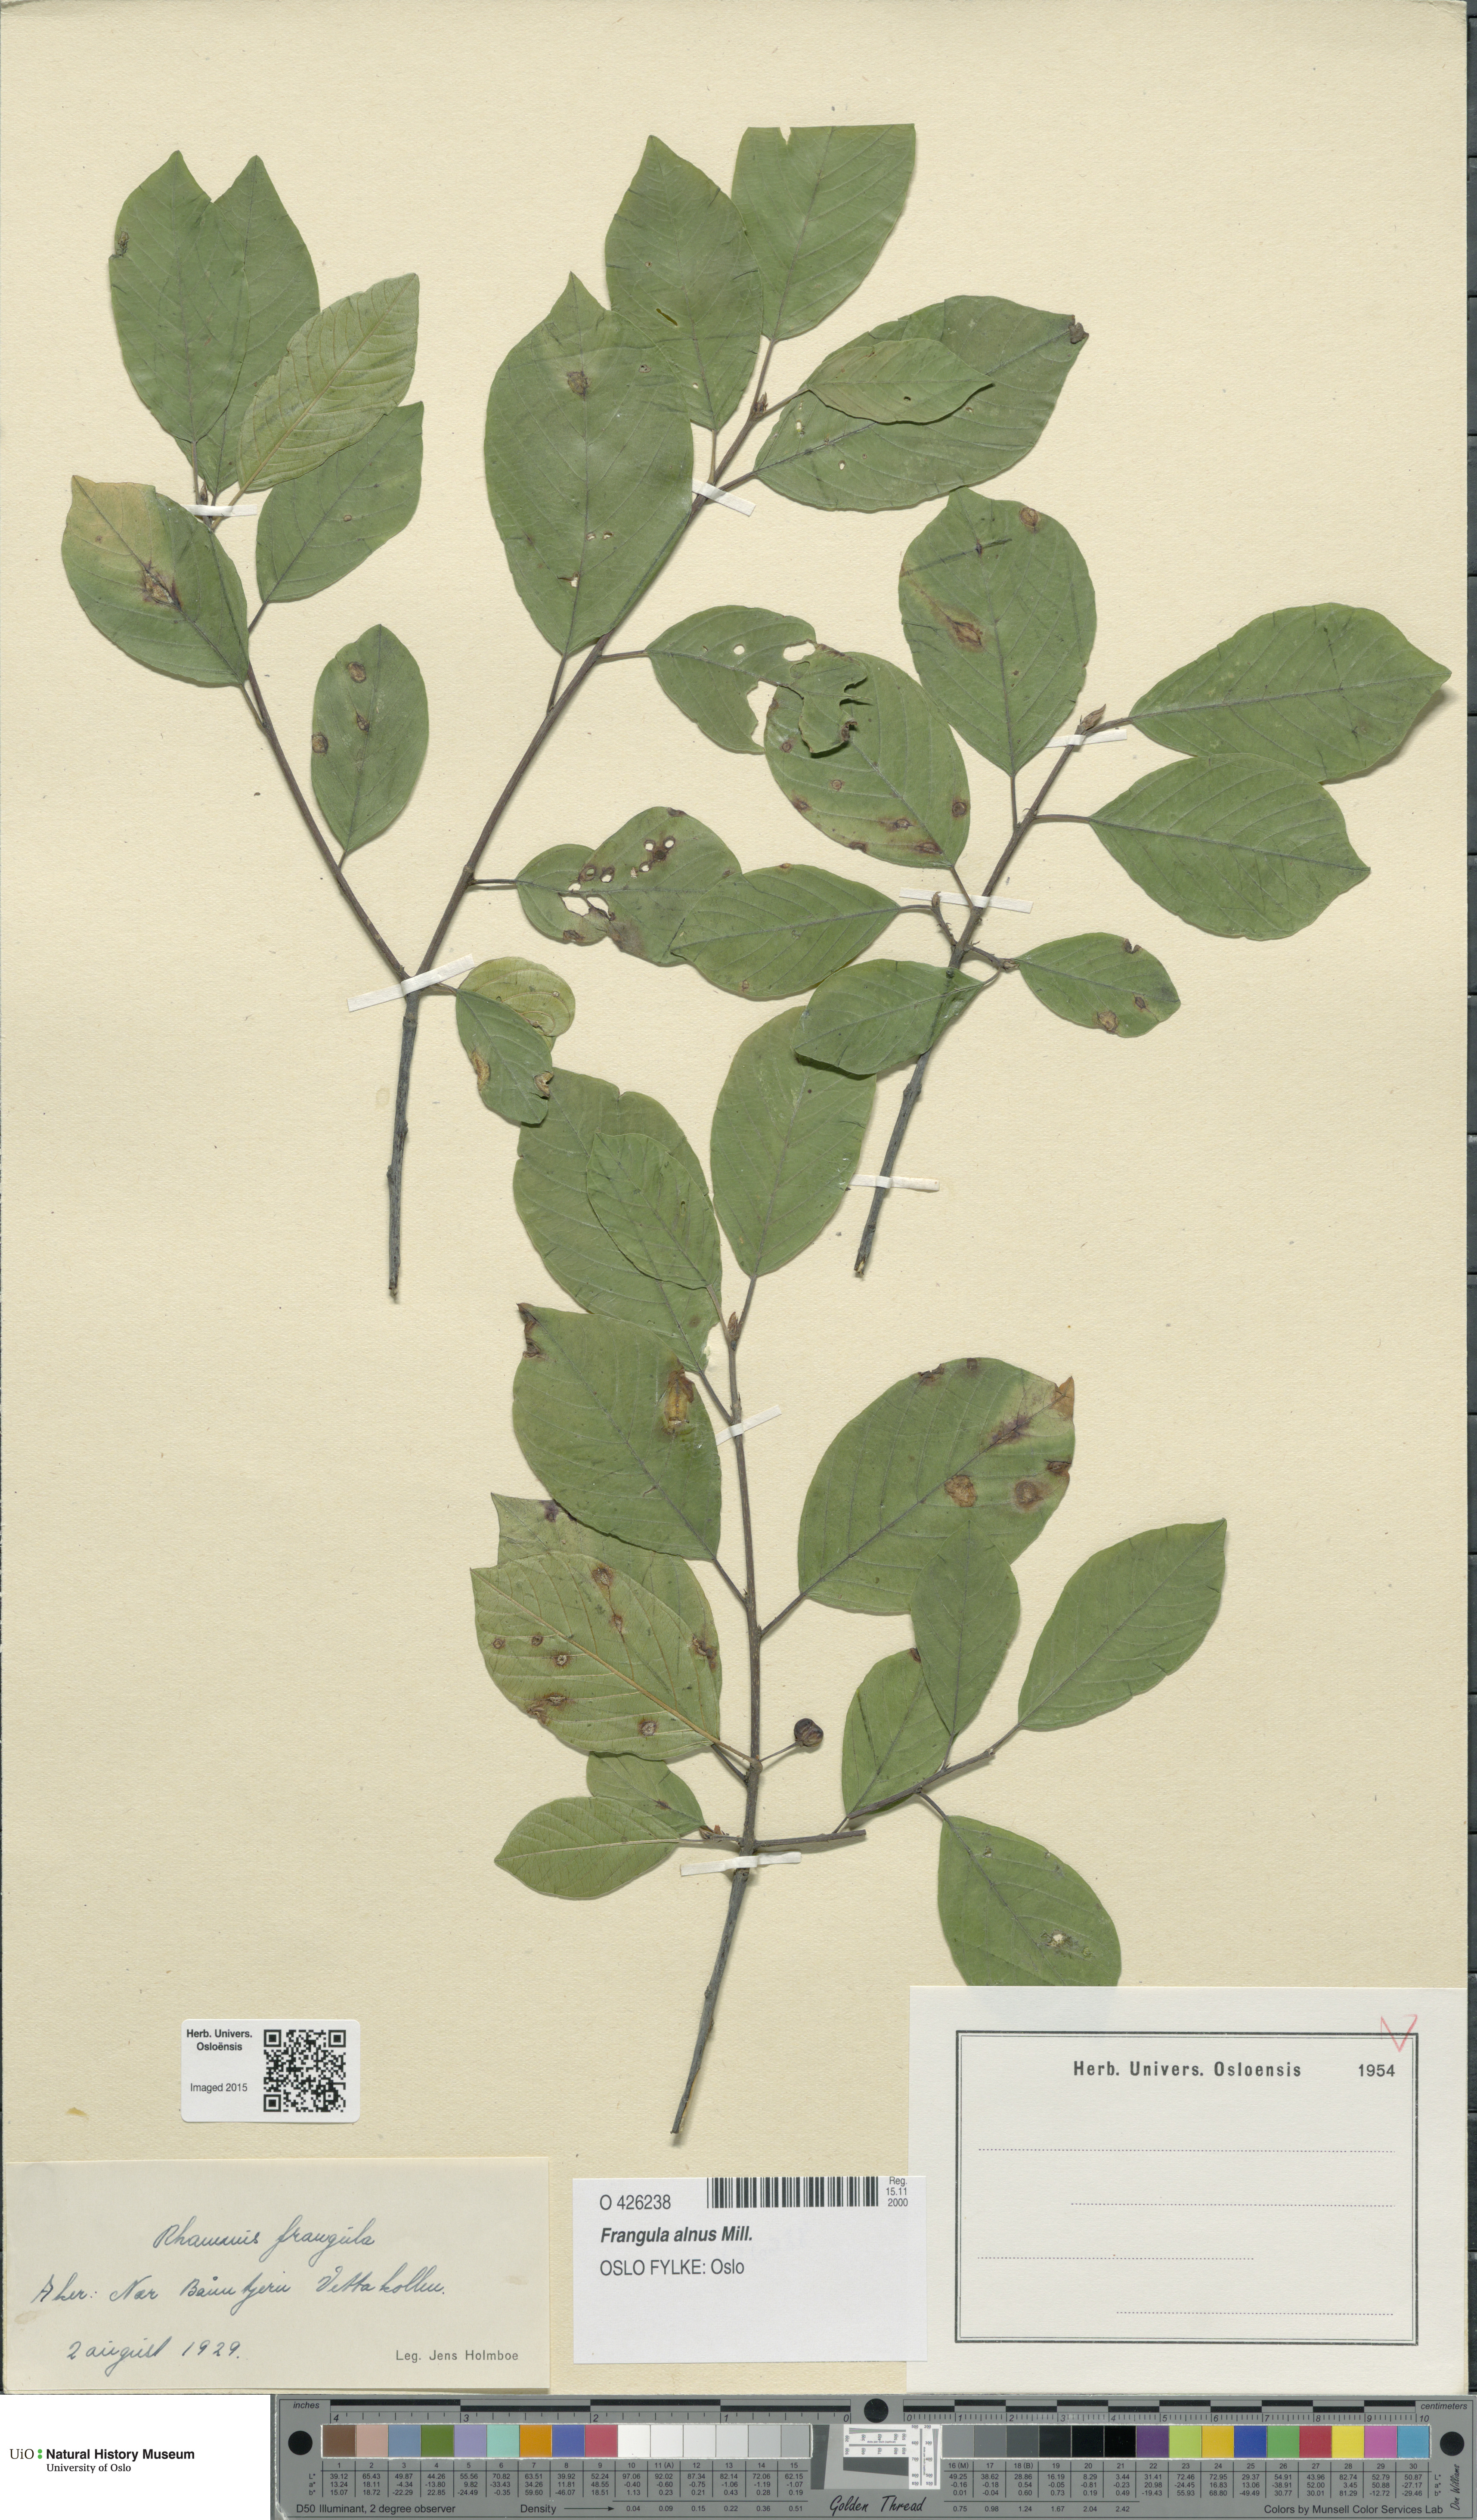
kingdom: Plantae
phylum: Tracheophyta
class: Magnoliopsida
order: Rosales
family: Rhamnaceae
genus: Frangula
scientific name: Frangula alnus
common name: Alder buckthorn
